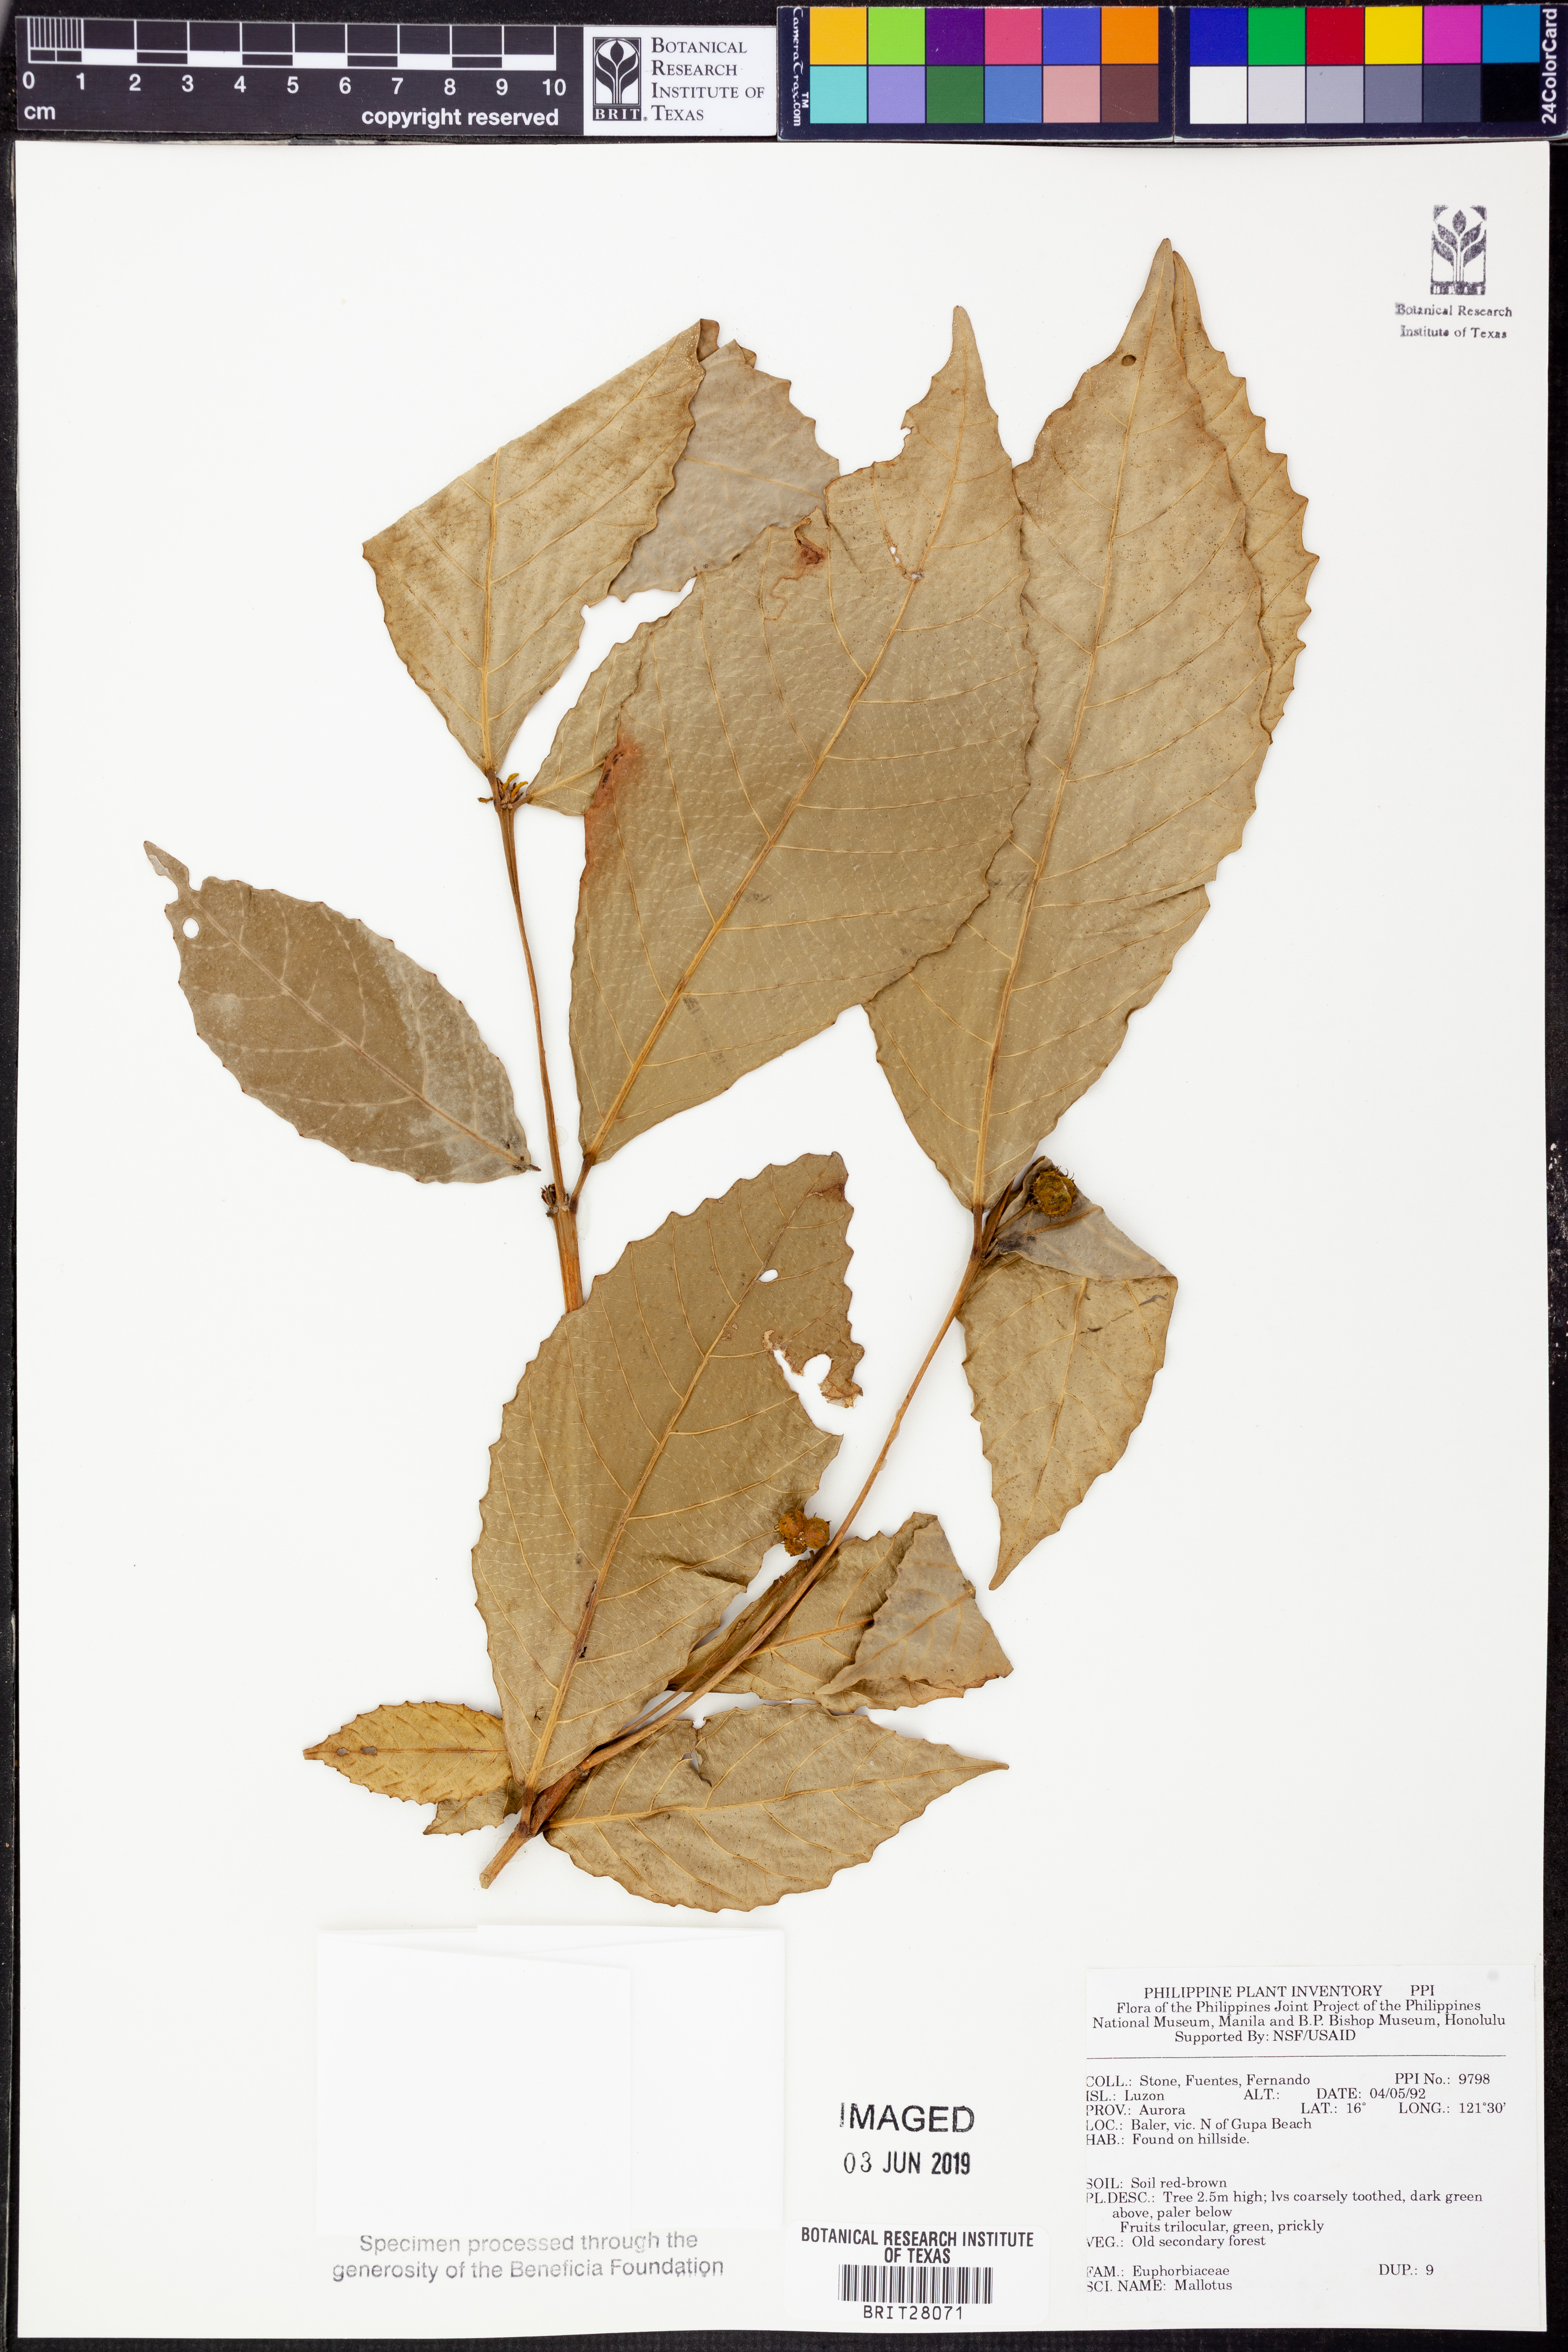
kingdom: Plantae
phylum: Tracheophyta
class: Magnoliopsida
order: Malpighiales
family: Euphorbiaceae
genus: Mallotus
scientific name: Mallotus
